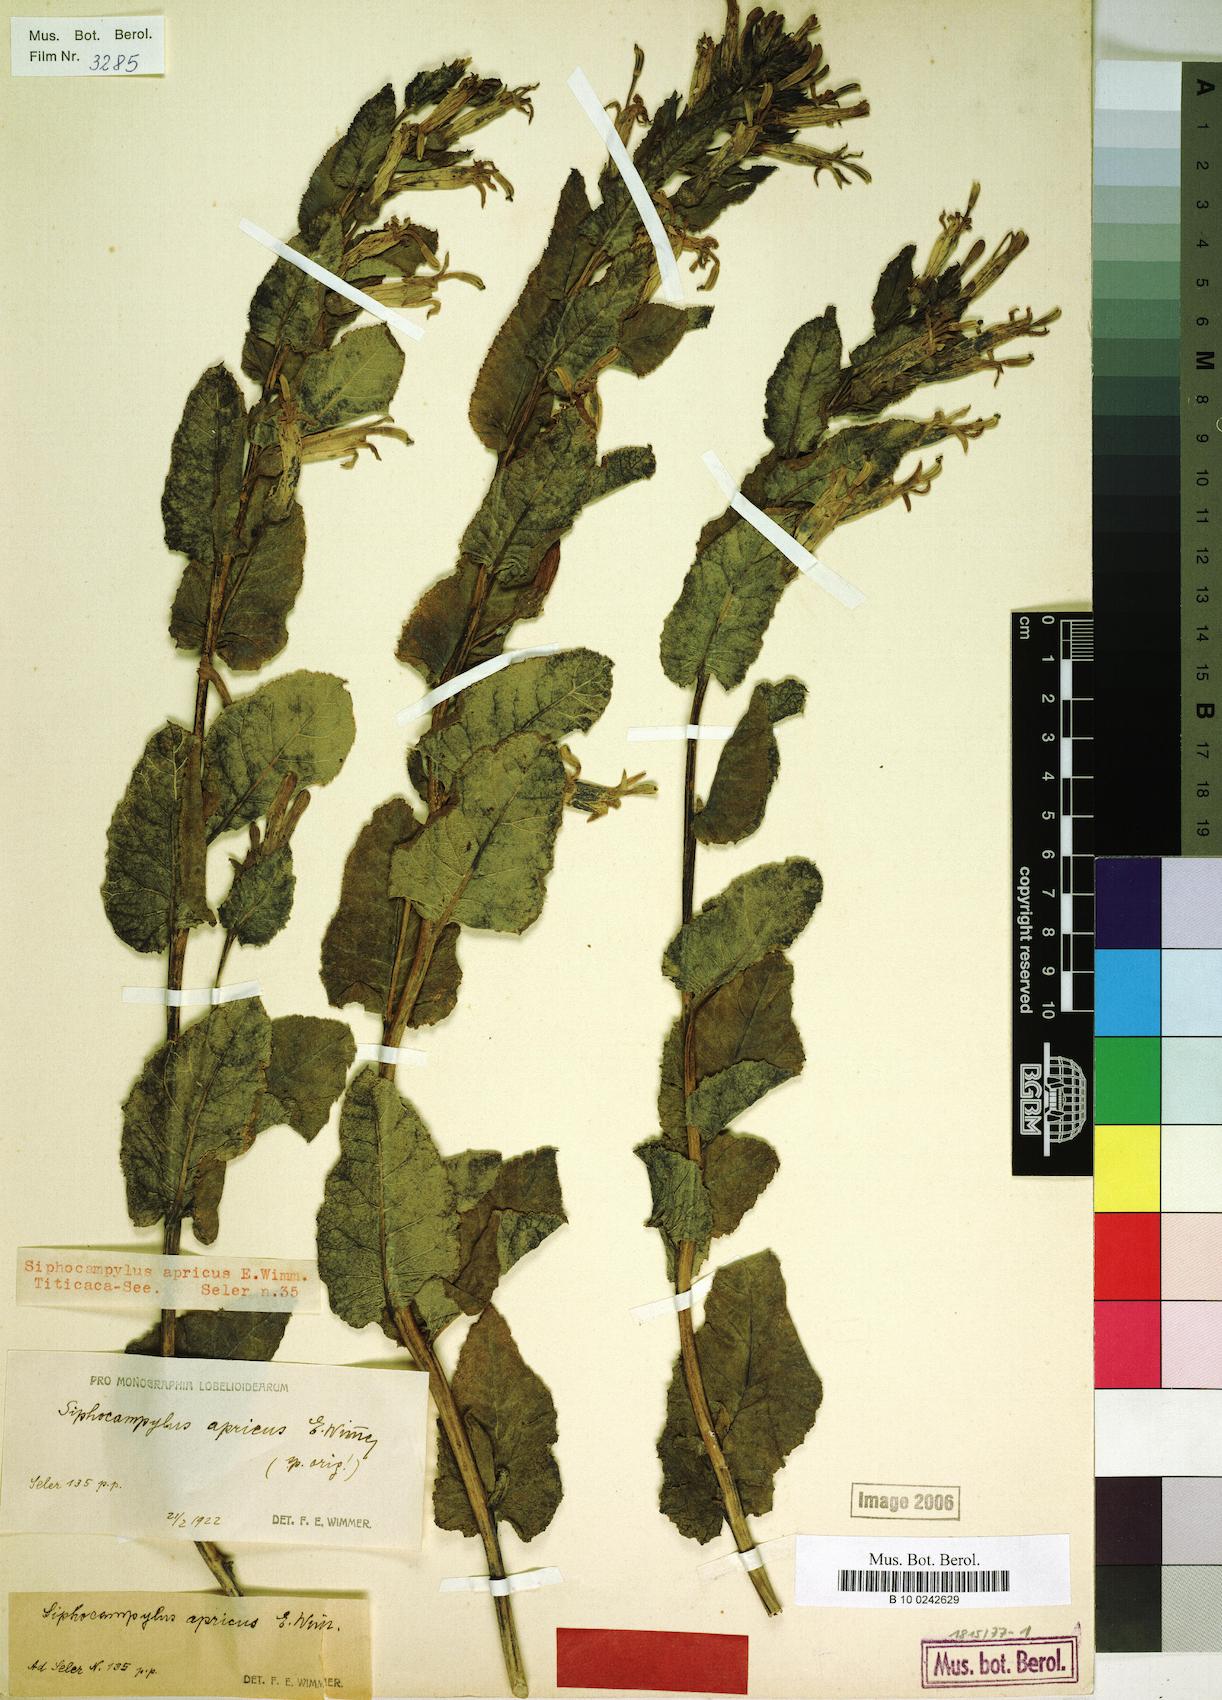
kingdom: Plantae
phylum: Tracheophyta
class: Magnoliopsida
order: Asterales
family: Campanulaceae
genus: Siphocampylus
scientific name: Siphocampylus apricus
